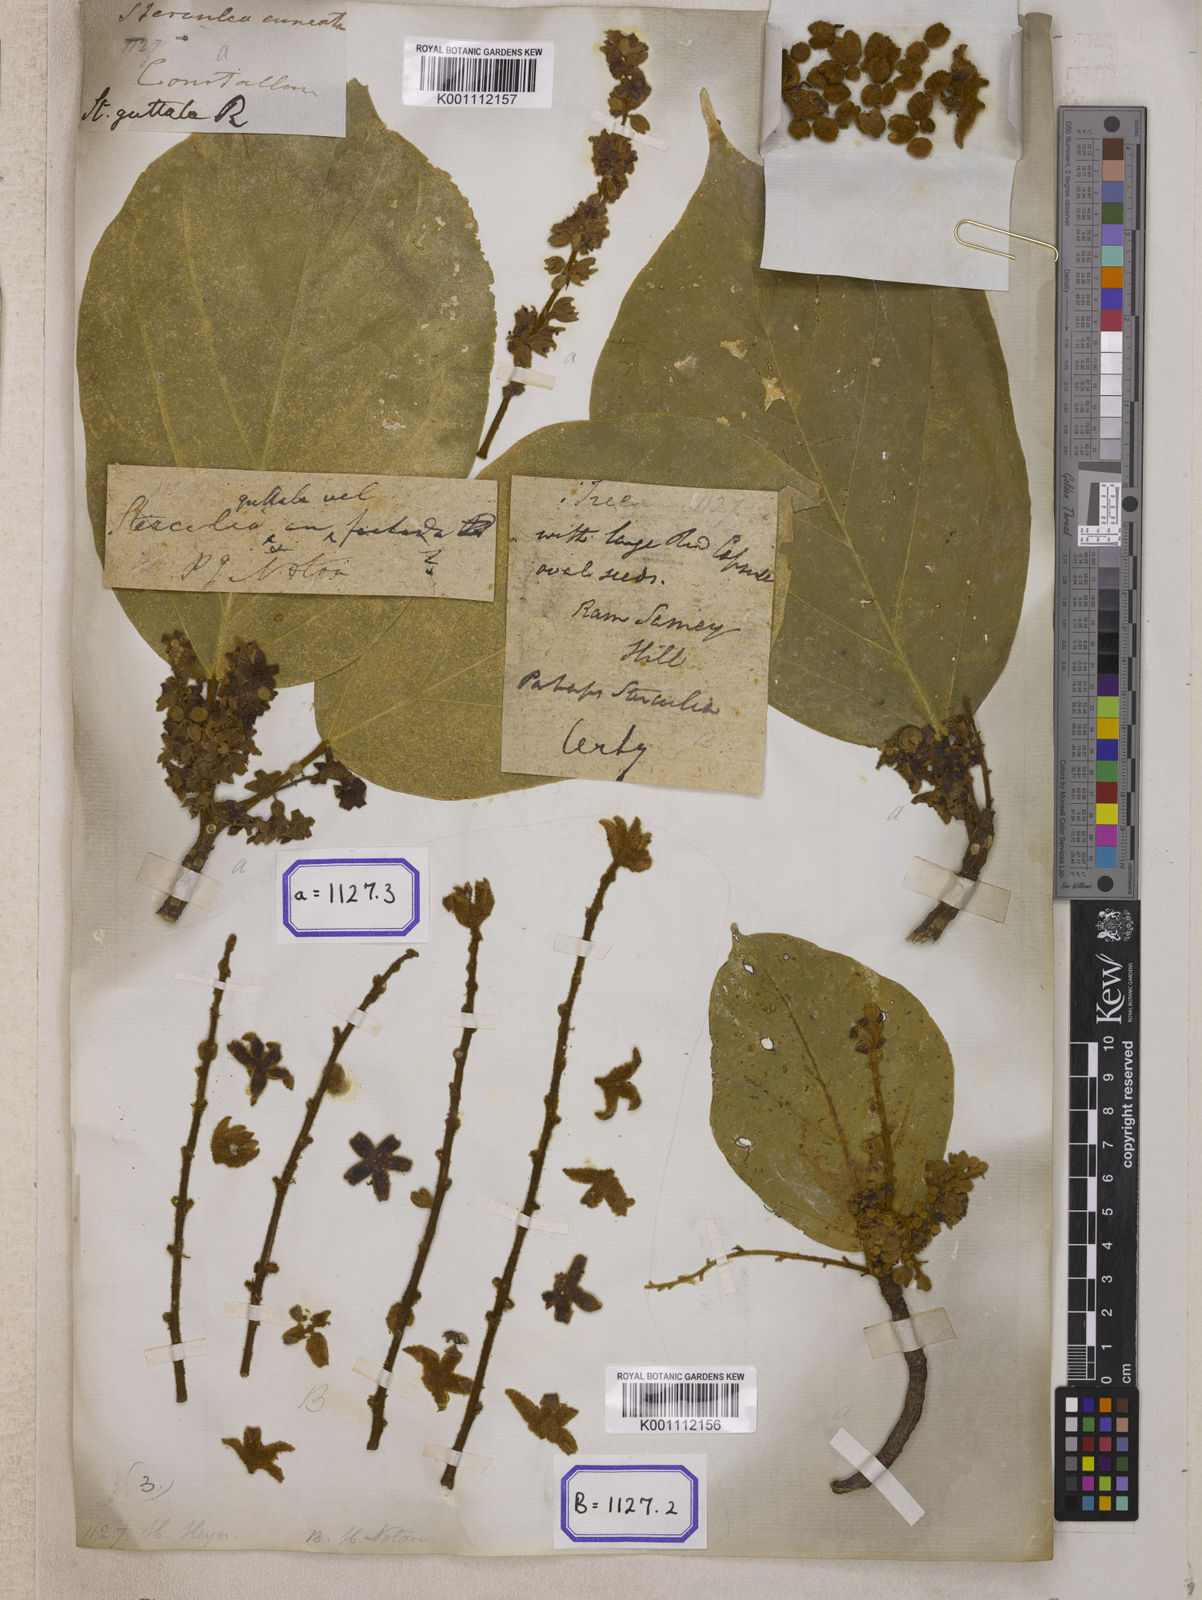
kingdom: Plantae
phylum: Tracheophyta
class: Magnoliopsida
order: Malvales
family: Malvaceae
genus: Sterculia
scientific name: Sterculia guttata
